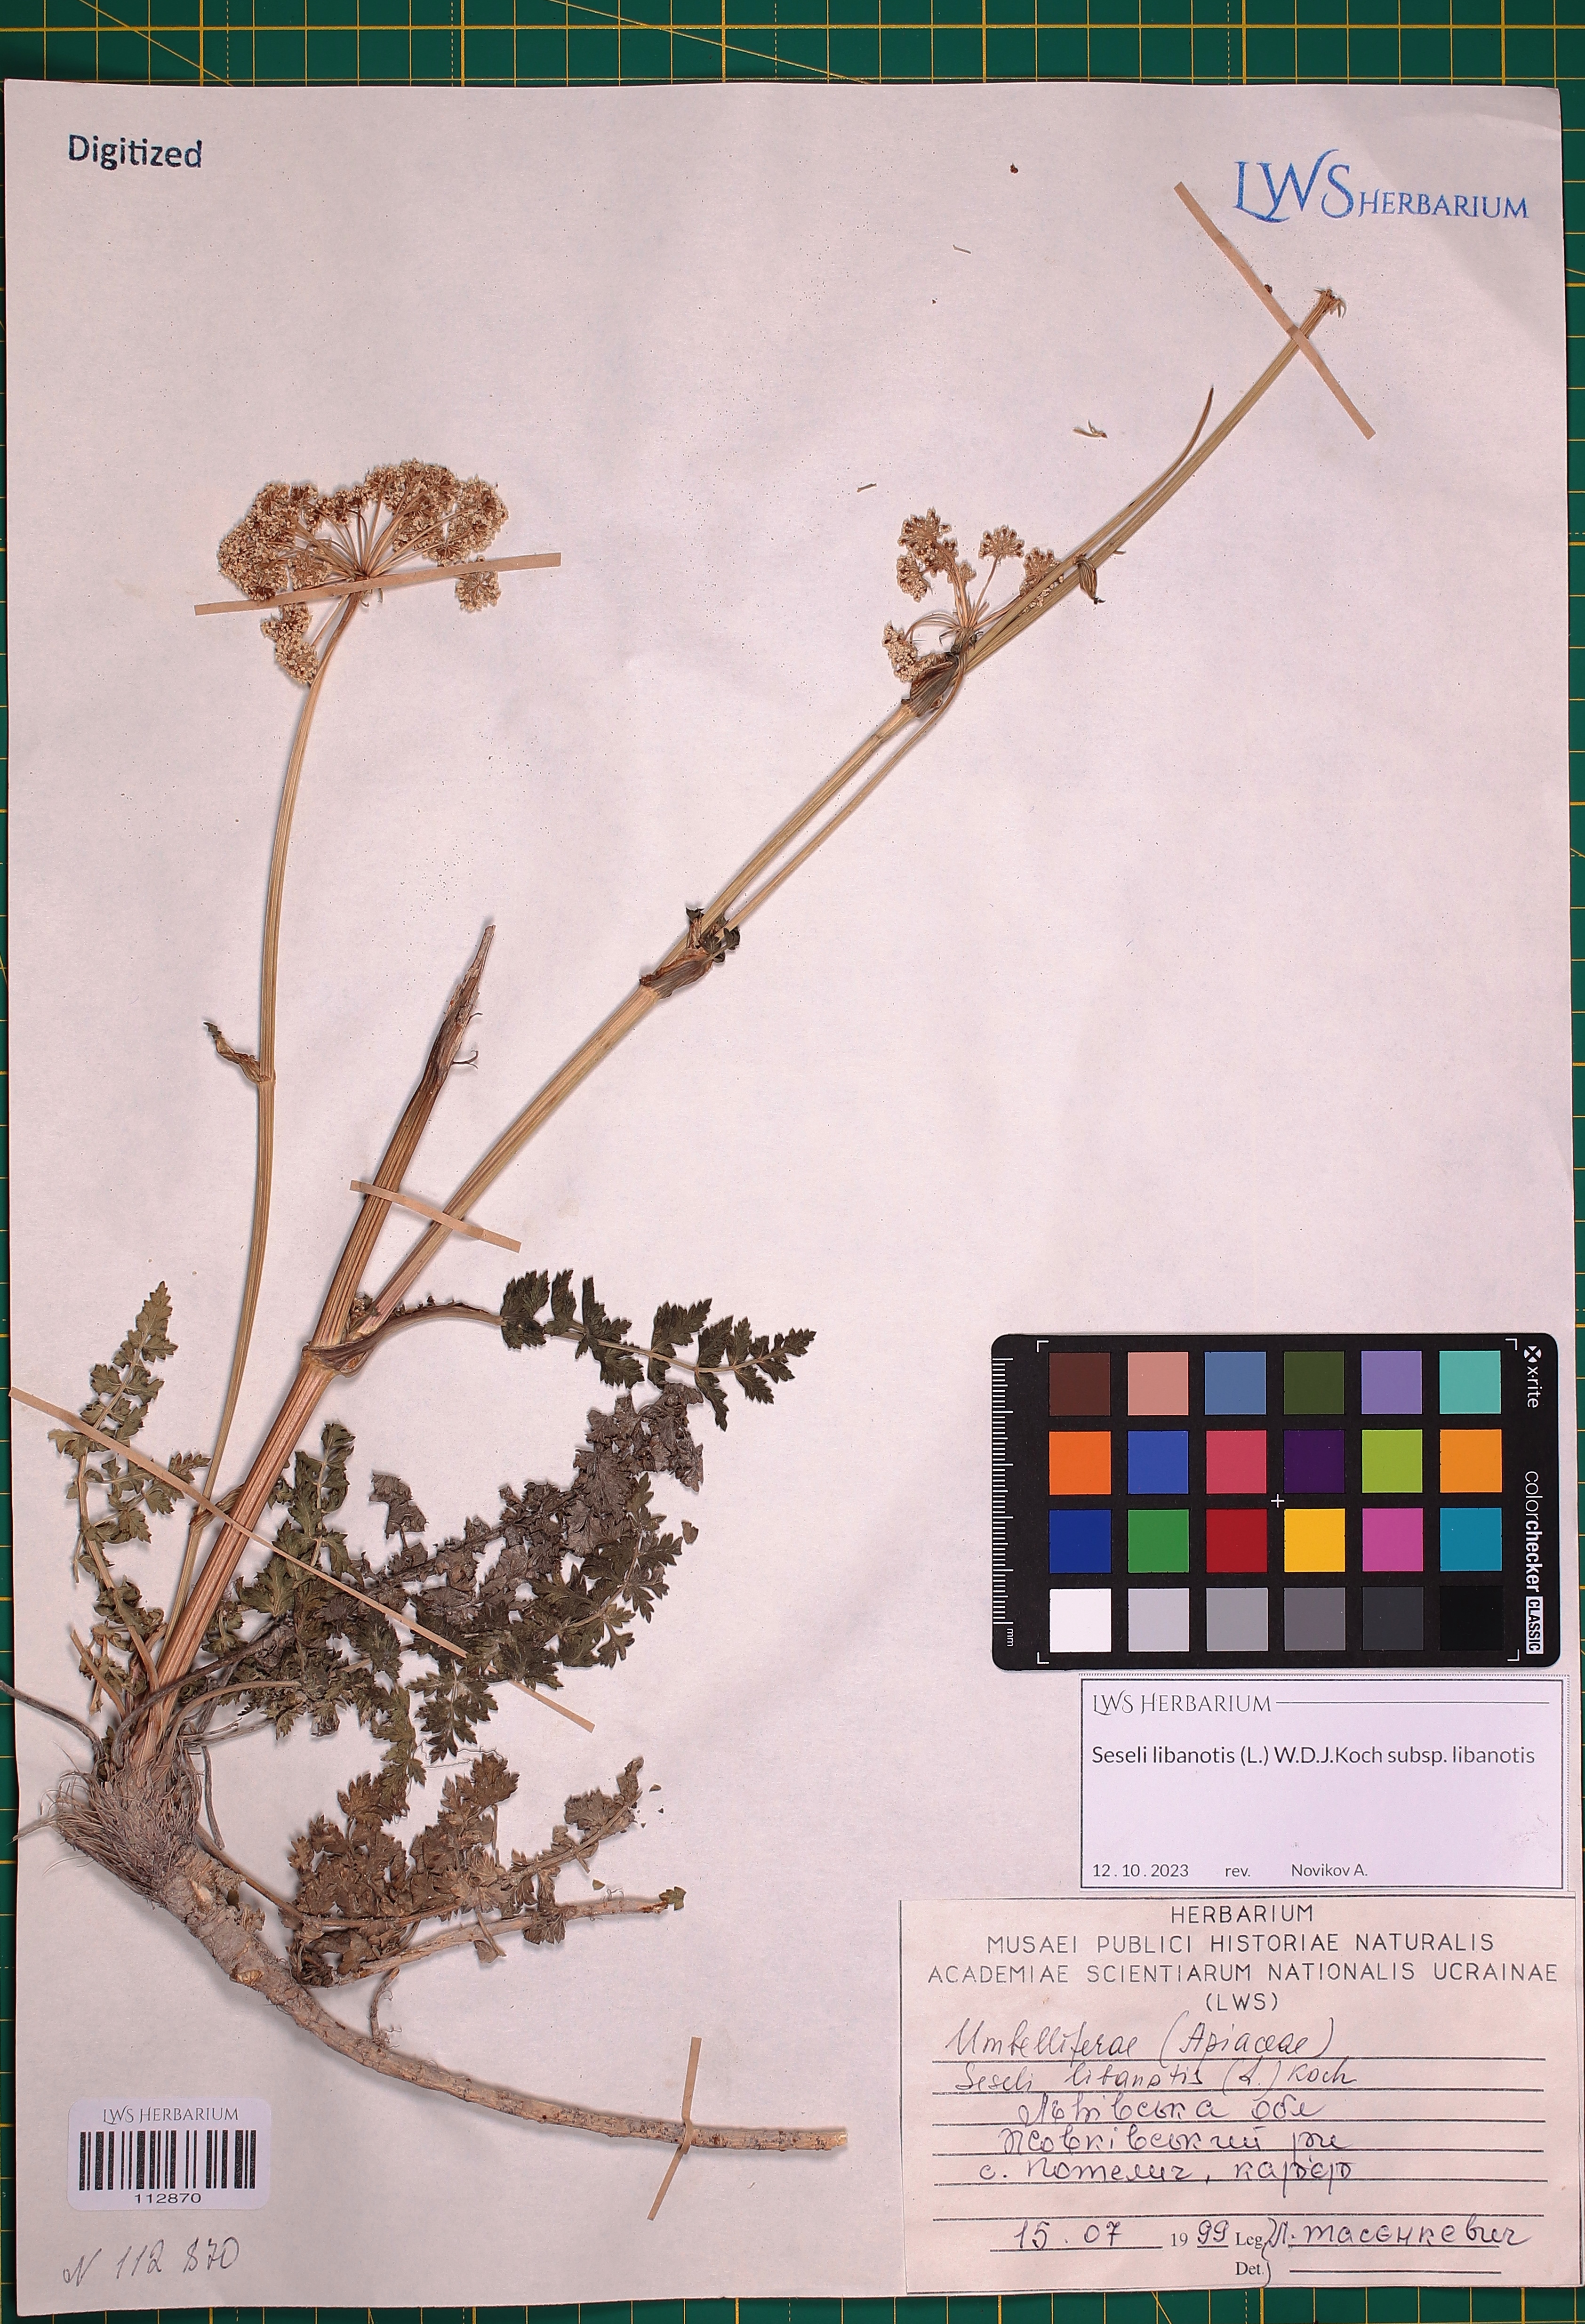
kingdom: Plantae
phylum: Tracheophyta
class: Magnoliopsida
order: Apiales
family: Apiaceae
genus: Seseli
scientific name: Seseli libanotis
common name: Mooncarrot
